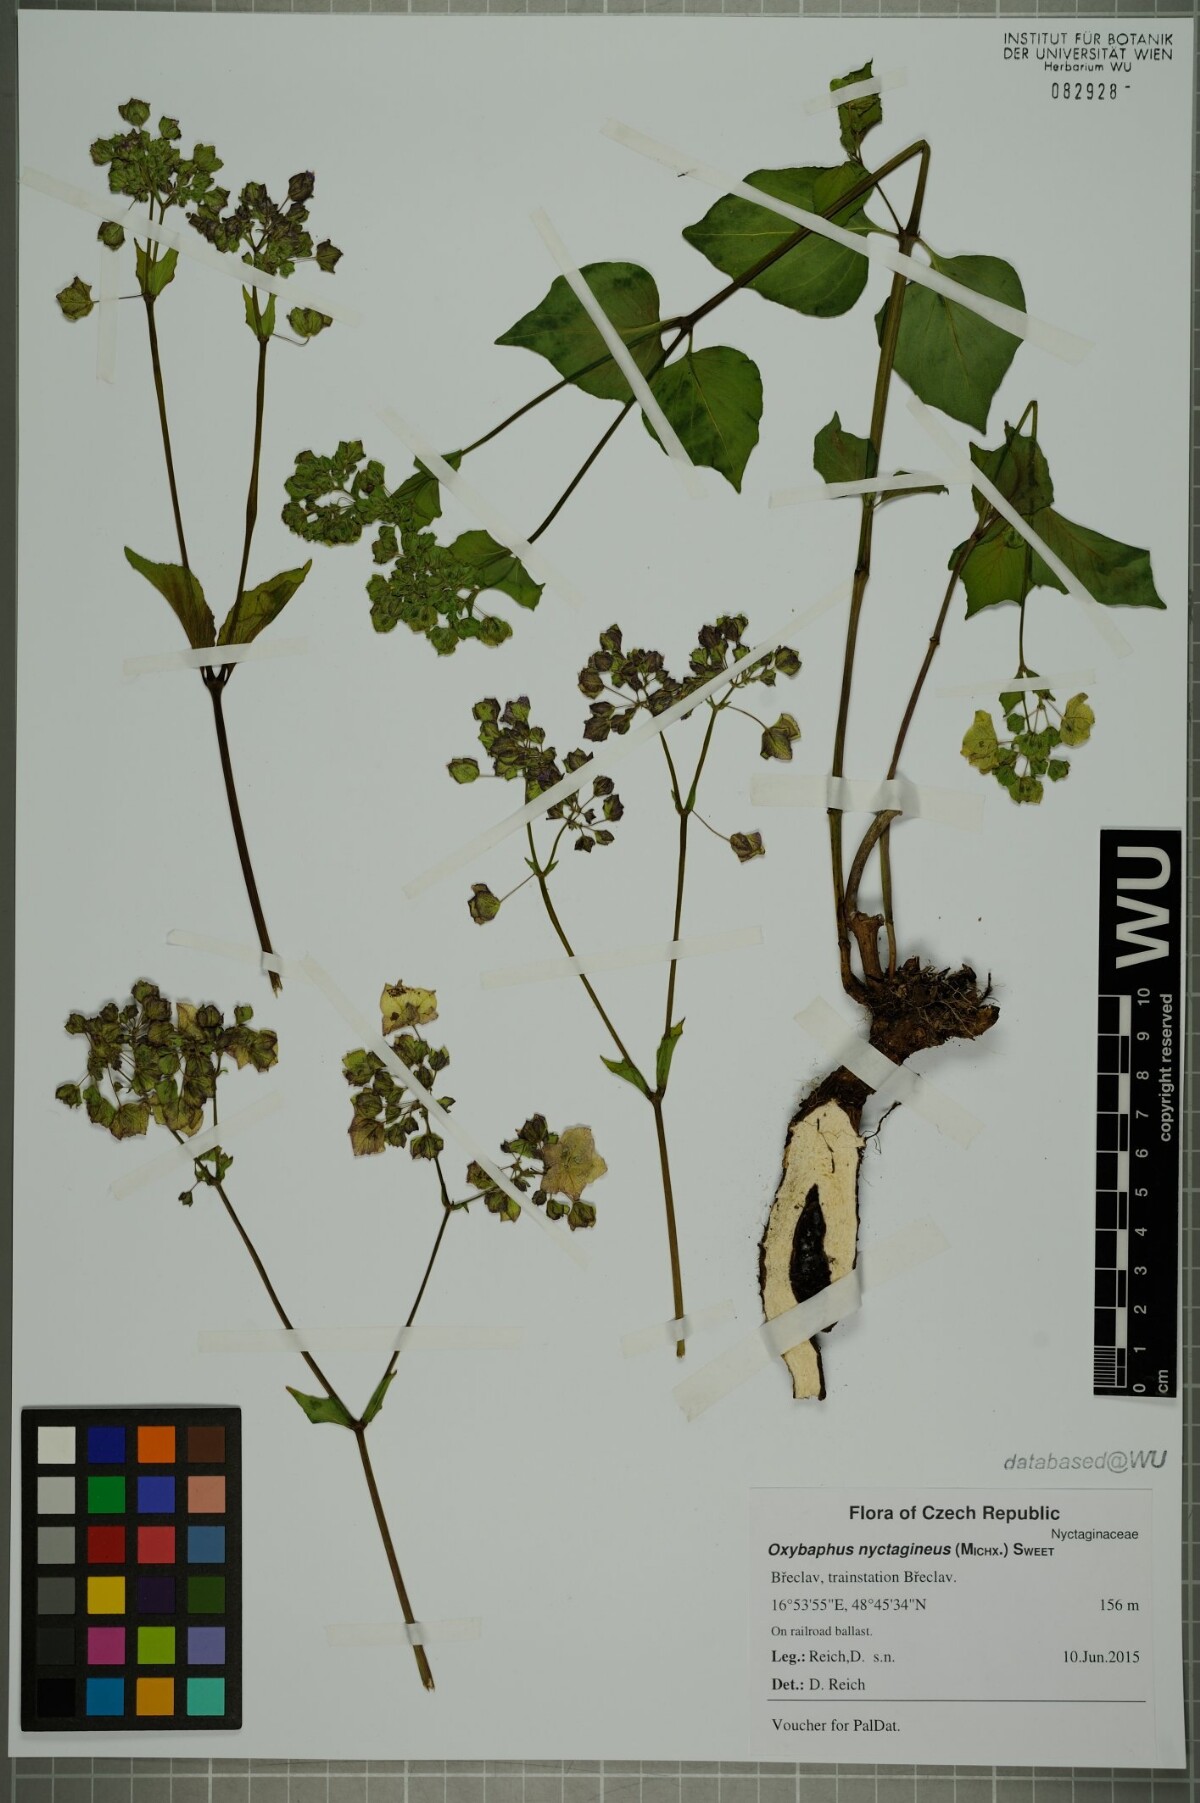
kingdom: Plantae
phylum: Tracheophyta
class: Magnoliopsida
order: Caryophyllales
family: Nyctaginaceae
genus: Mirabilis
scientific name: Mirabilis nyctaginea
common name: Umbrella wort
